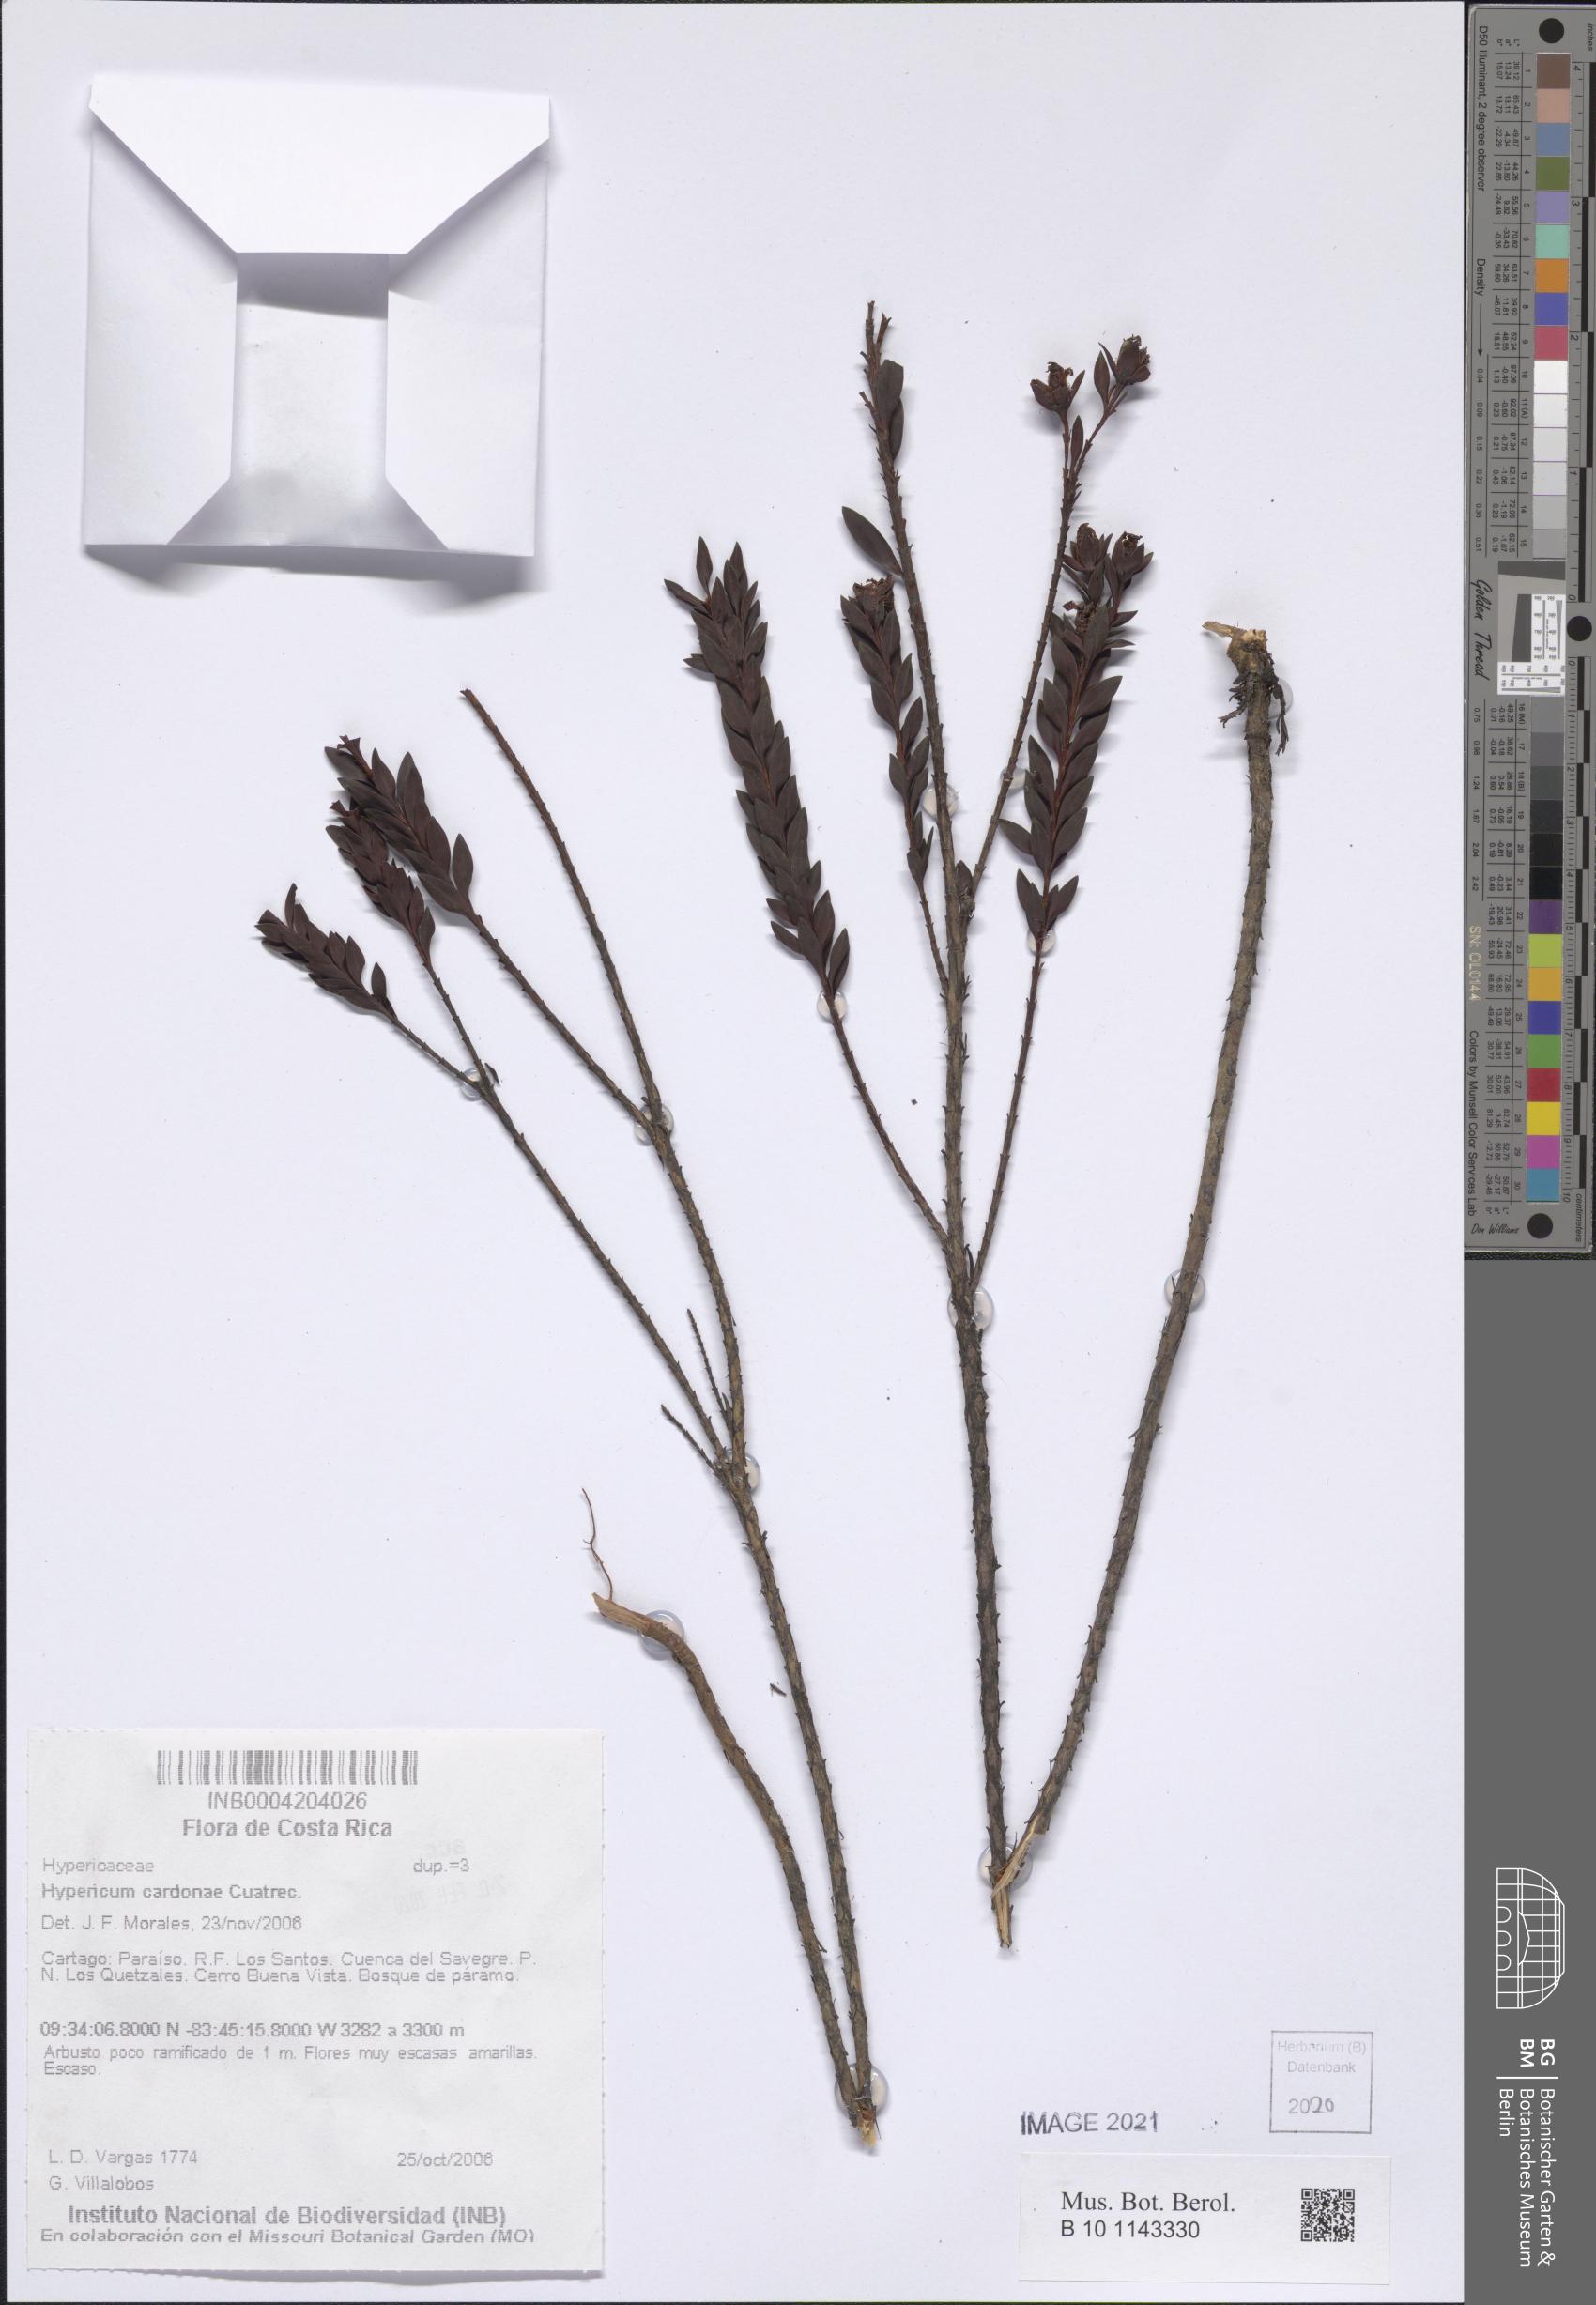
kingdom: Plantae
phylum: Tracheophyta
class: Magnoliopsida
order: Malpighiales
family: Hypericaceae
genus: Hypericum
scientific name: Hypericum cardonae
